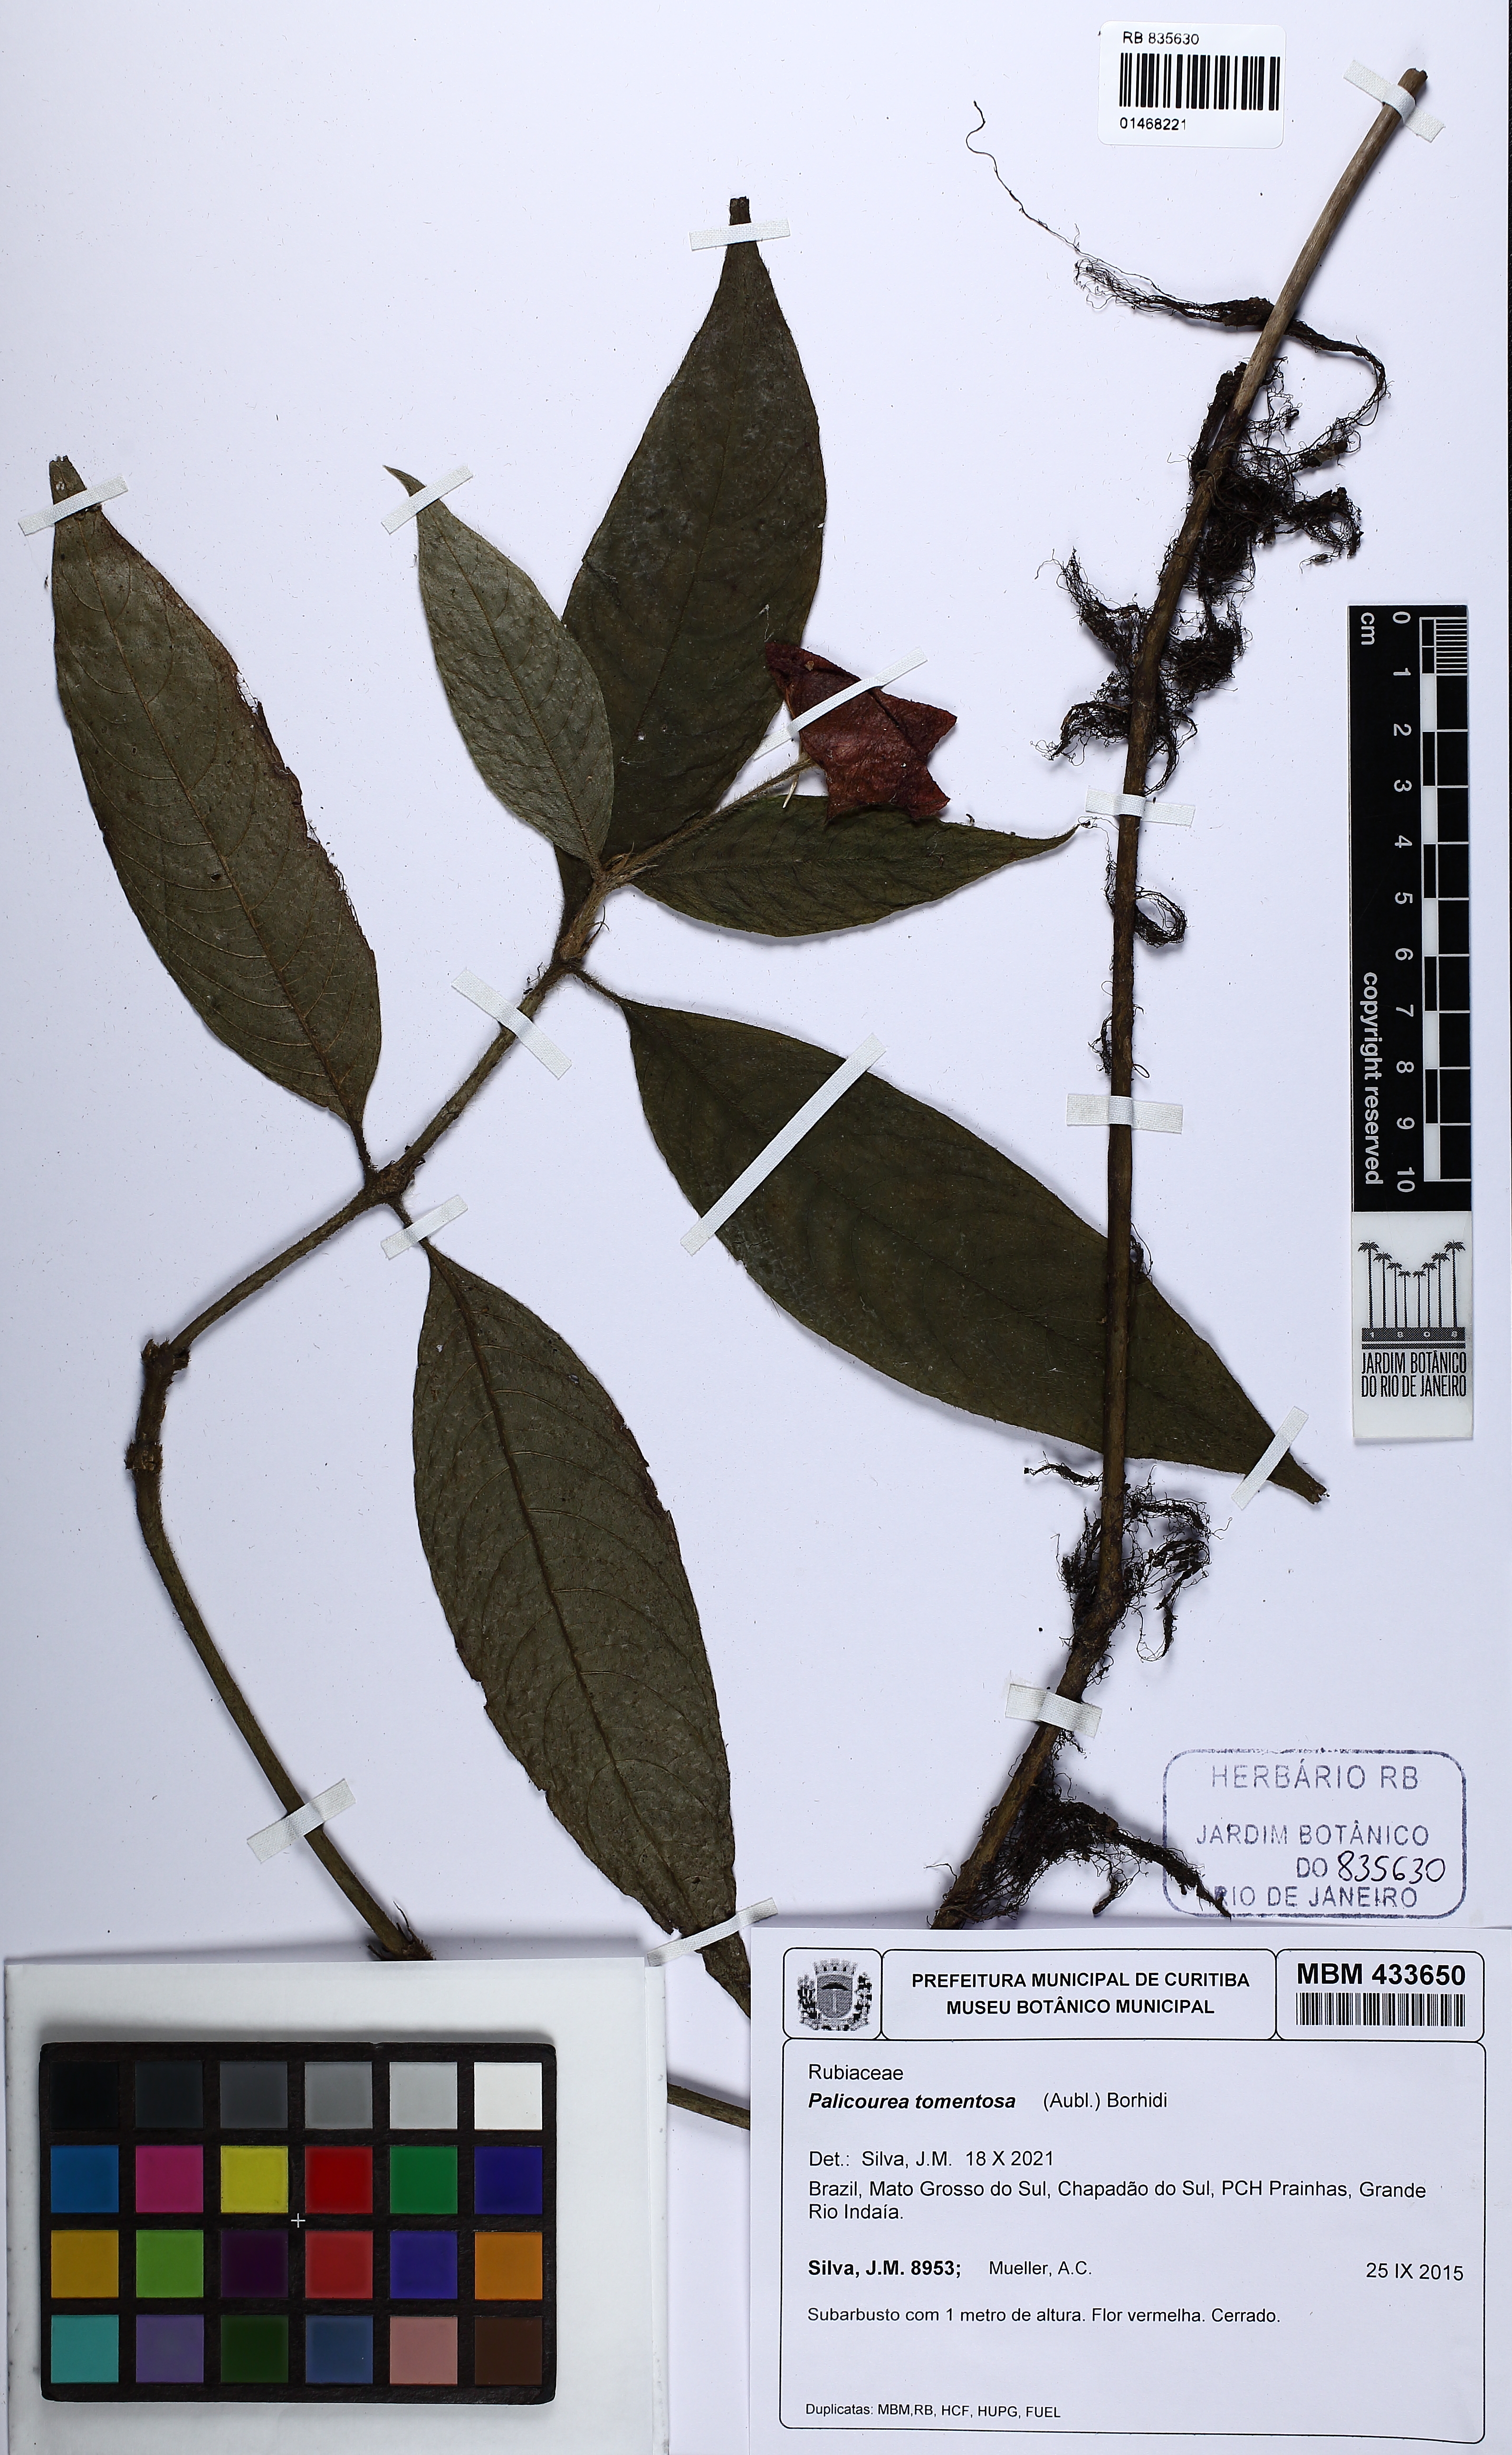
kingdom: Plantae
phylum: Tracheophyta
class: Magnoliopsida
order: Gentianales
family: Rubiaceae
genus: Palicourea
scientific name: Palicourea tomentosa
